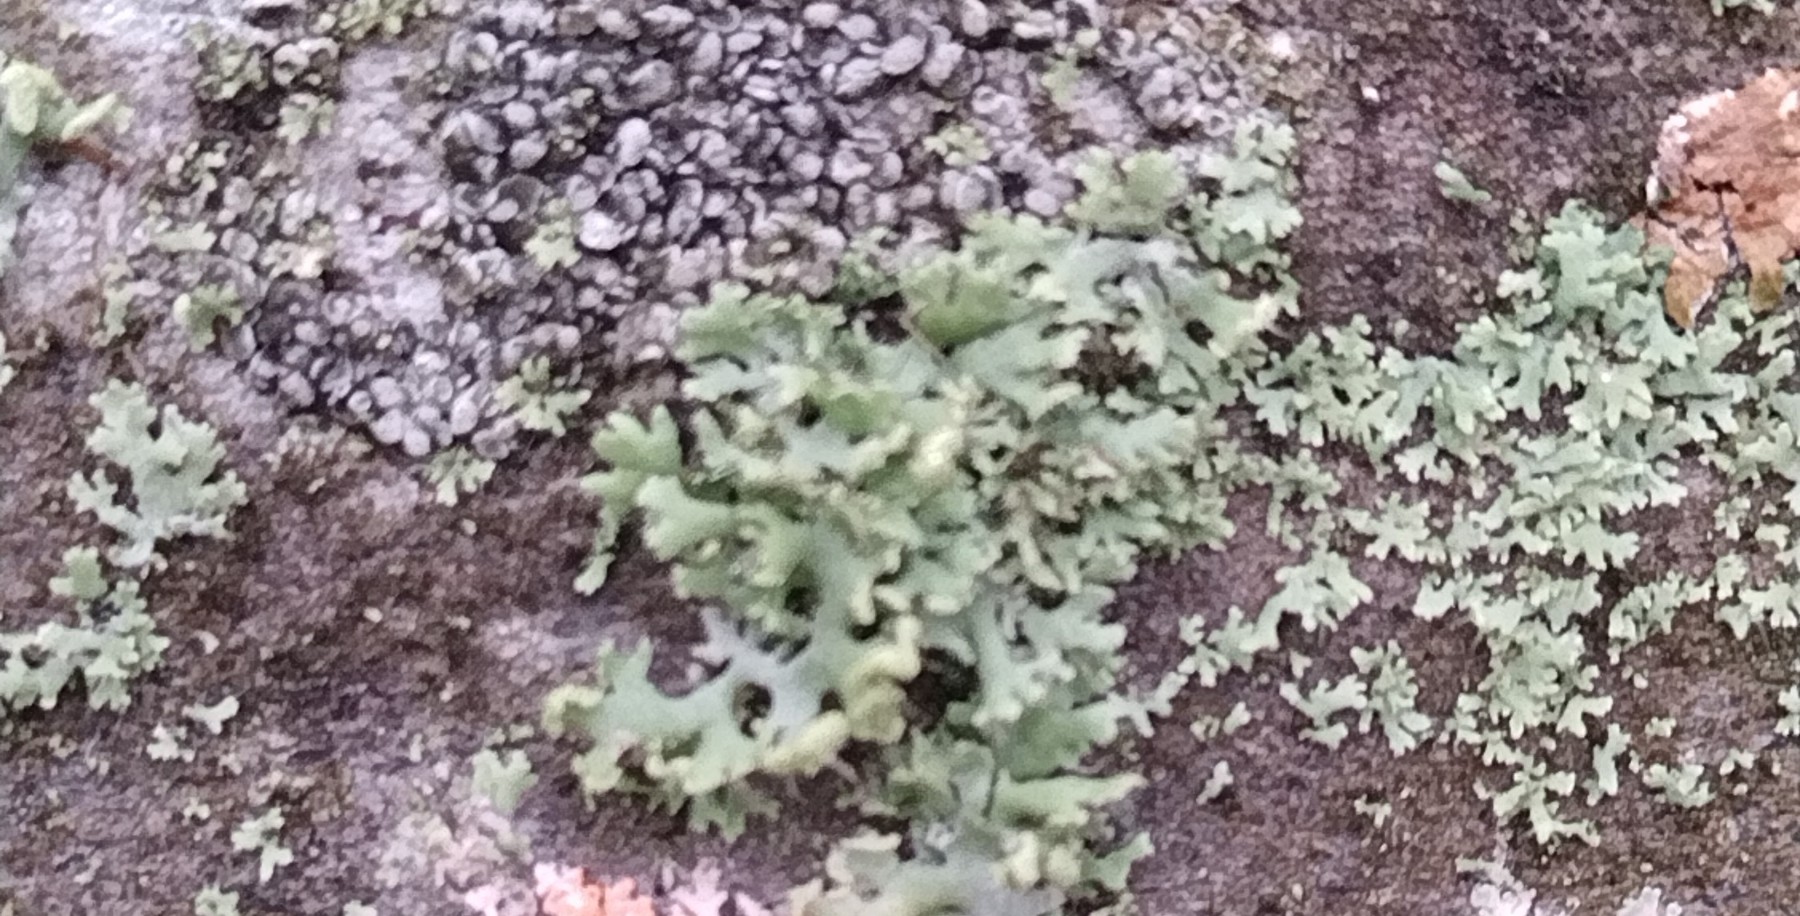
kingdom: Fungi
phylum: Ascomycota
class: Lecanoromycetes
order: Caliciales
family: Physciaceae
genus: Physcia
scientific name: Physcia tenella
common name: spæd rosetlav
